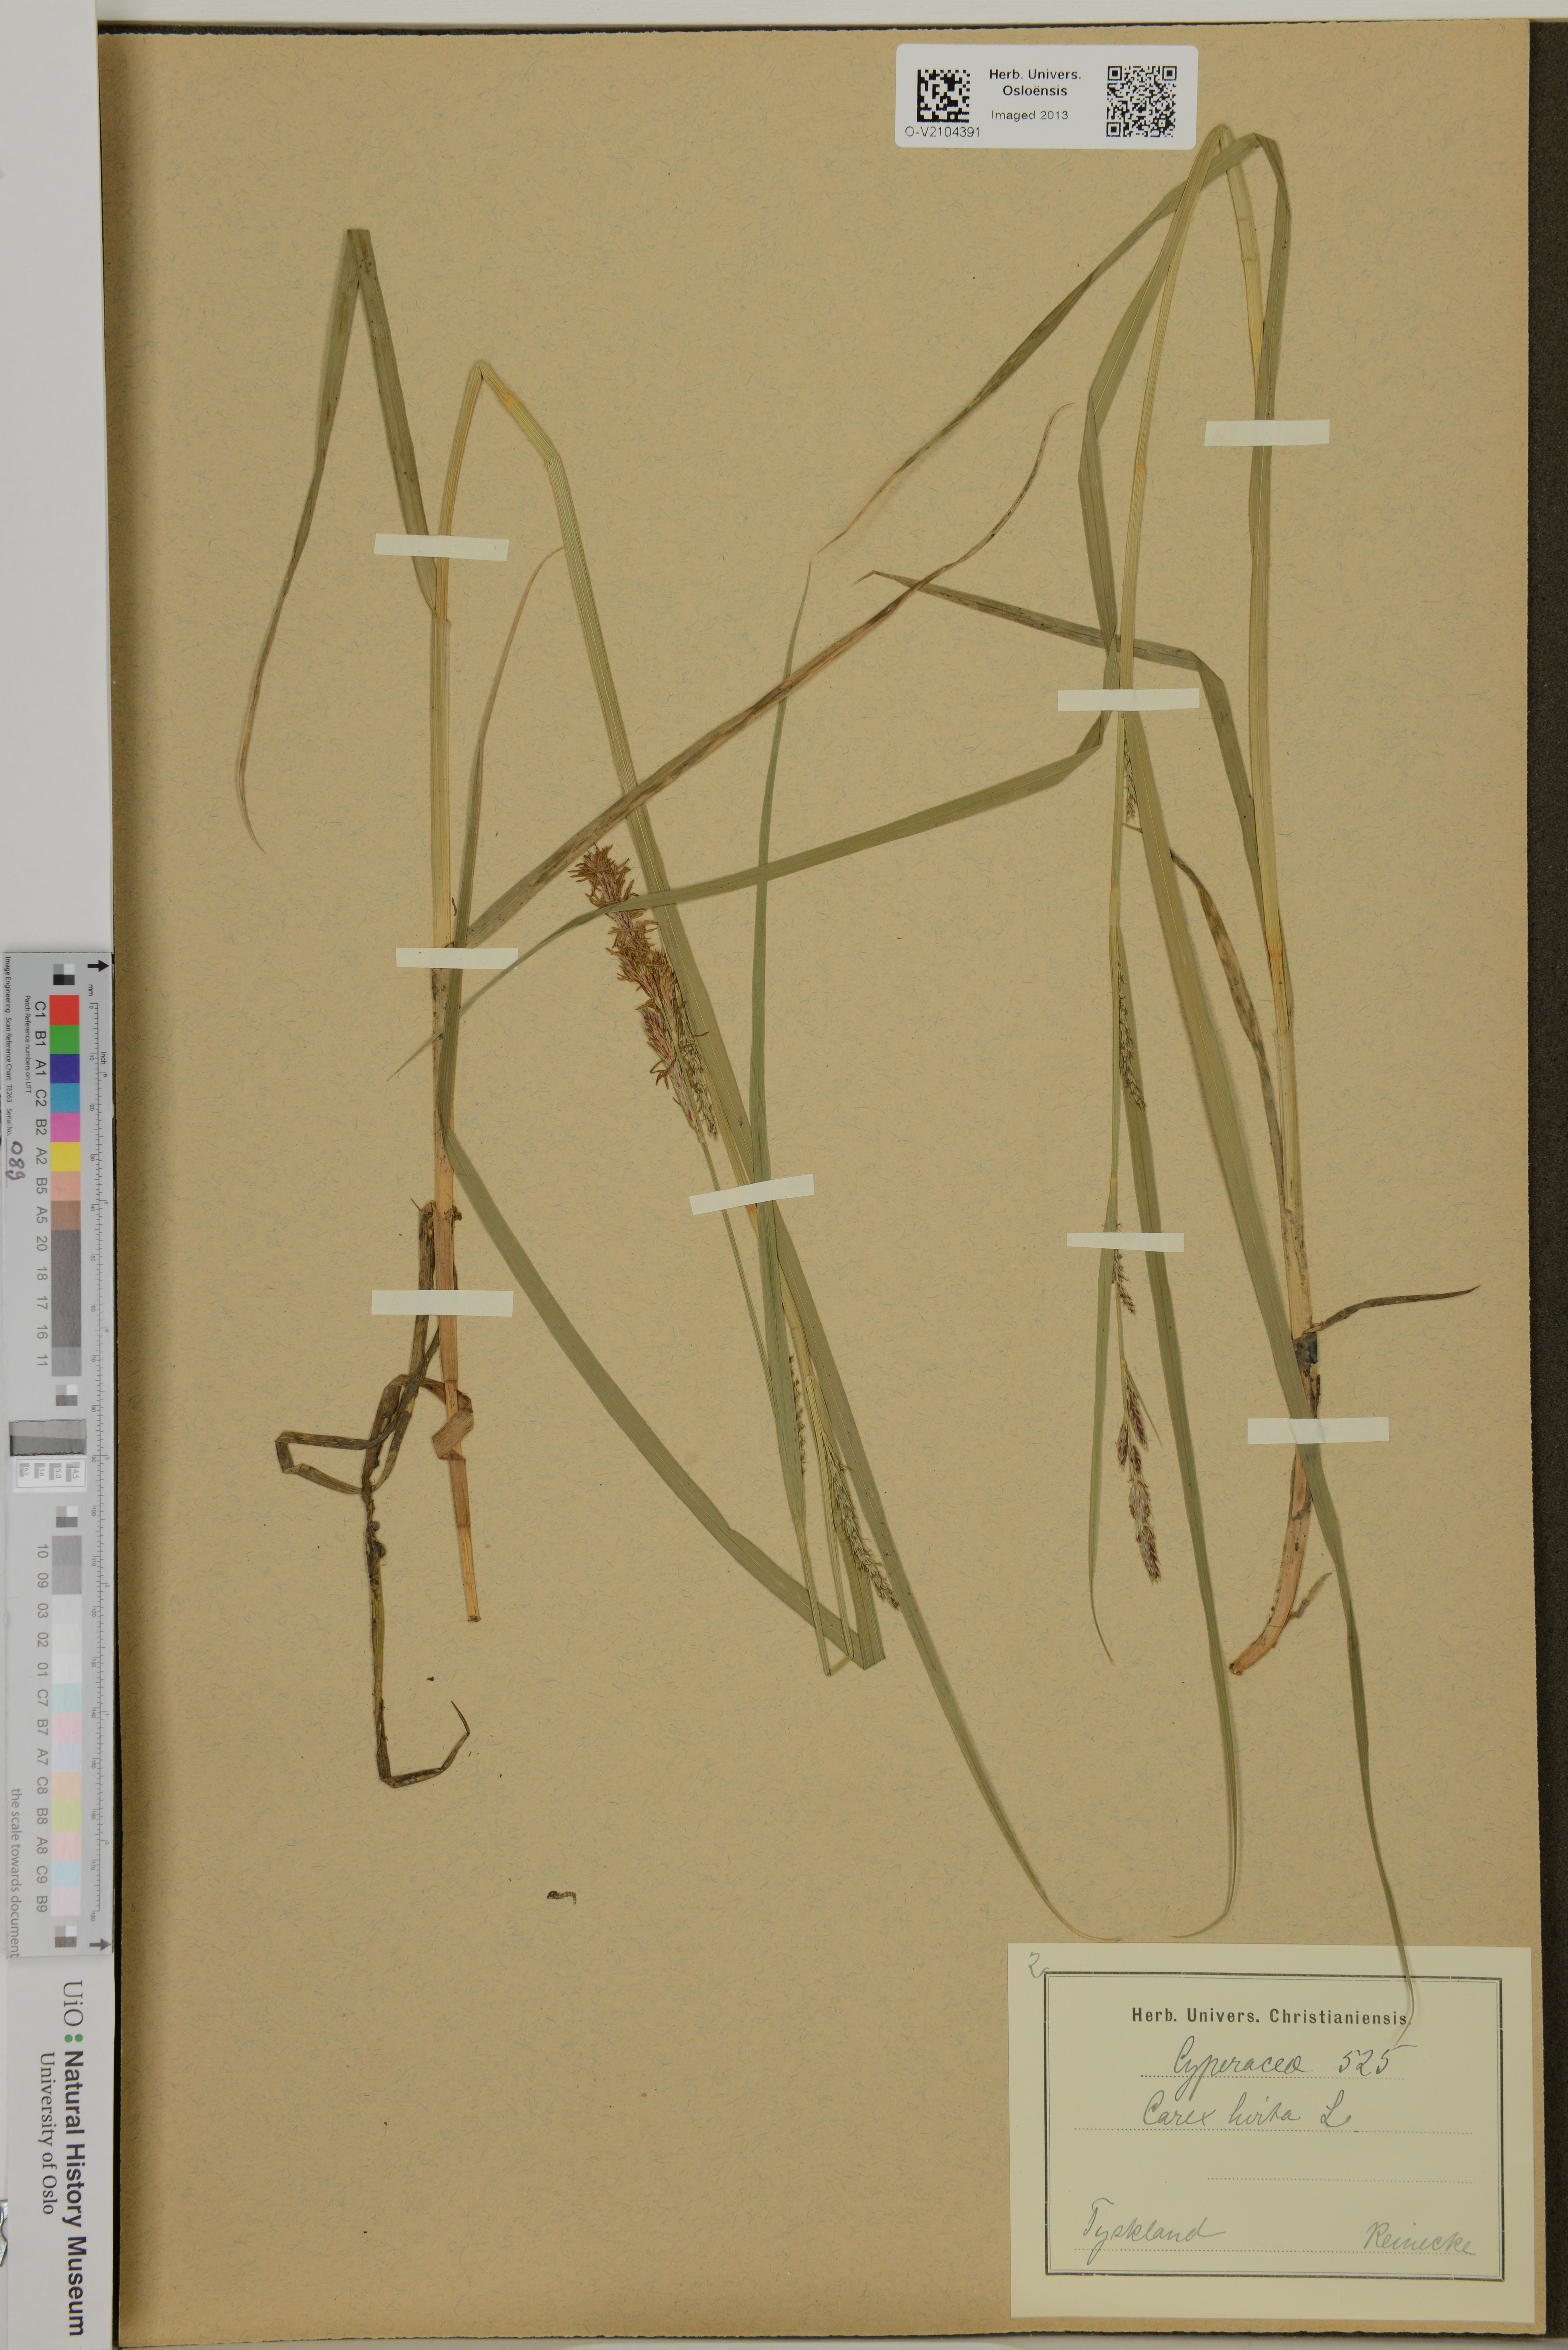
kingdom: Plantae
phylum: Tracheophyta
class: Liliopsida
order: Poales
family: Cyperaceae
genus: Carex
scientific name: Carex hirta
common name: Hairy sedge
